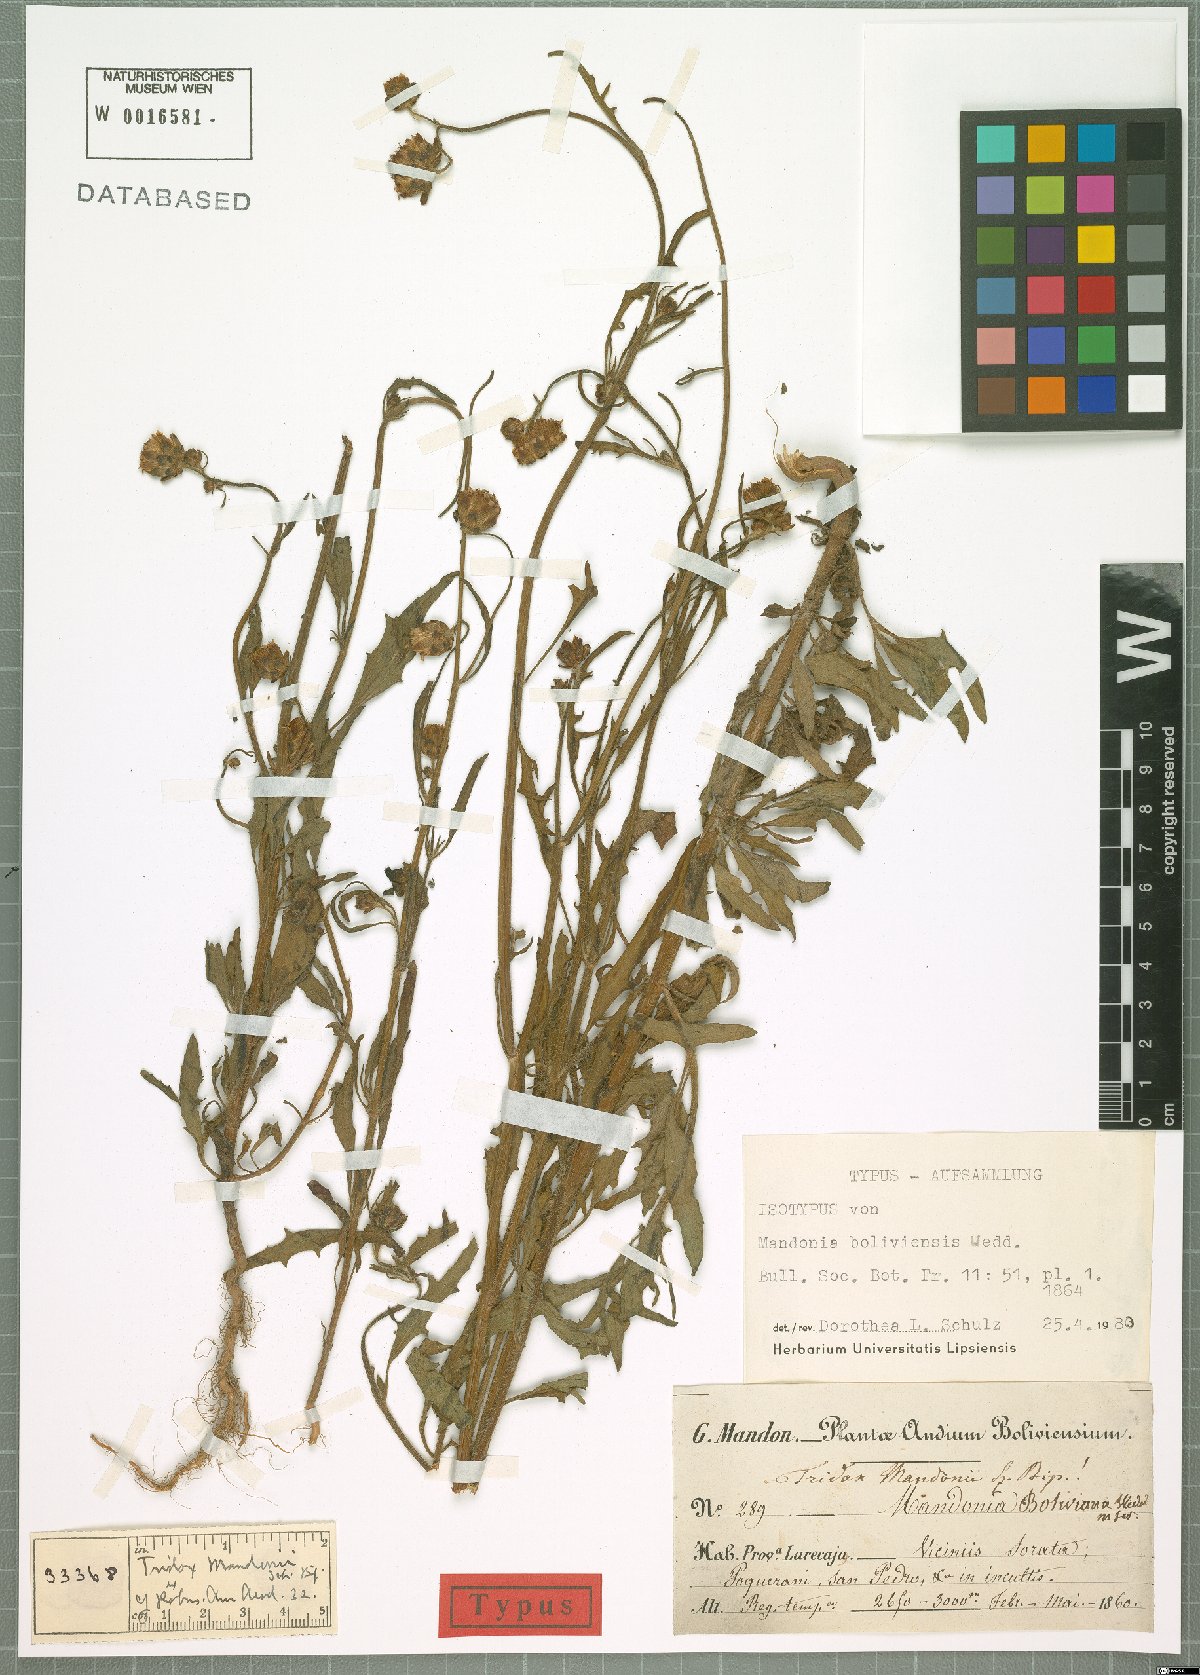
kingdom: Plantae
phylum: Tracheophyta
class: Magnoliopsida
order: Asterales
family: Asteraceae
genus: Tridax
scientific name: Tridax boliviensis
